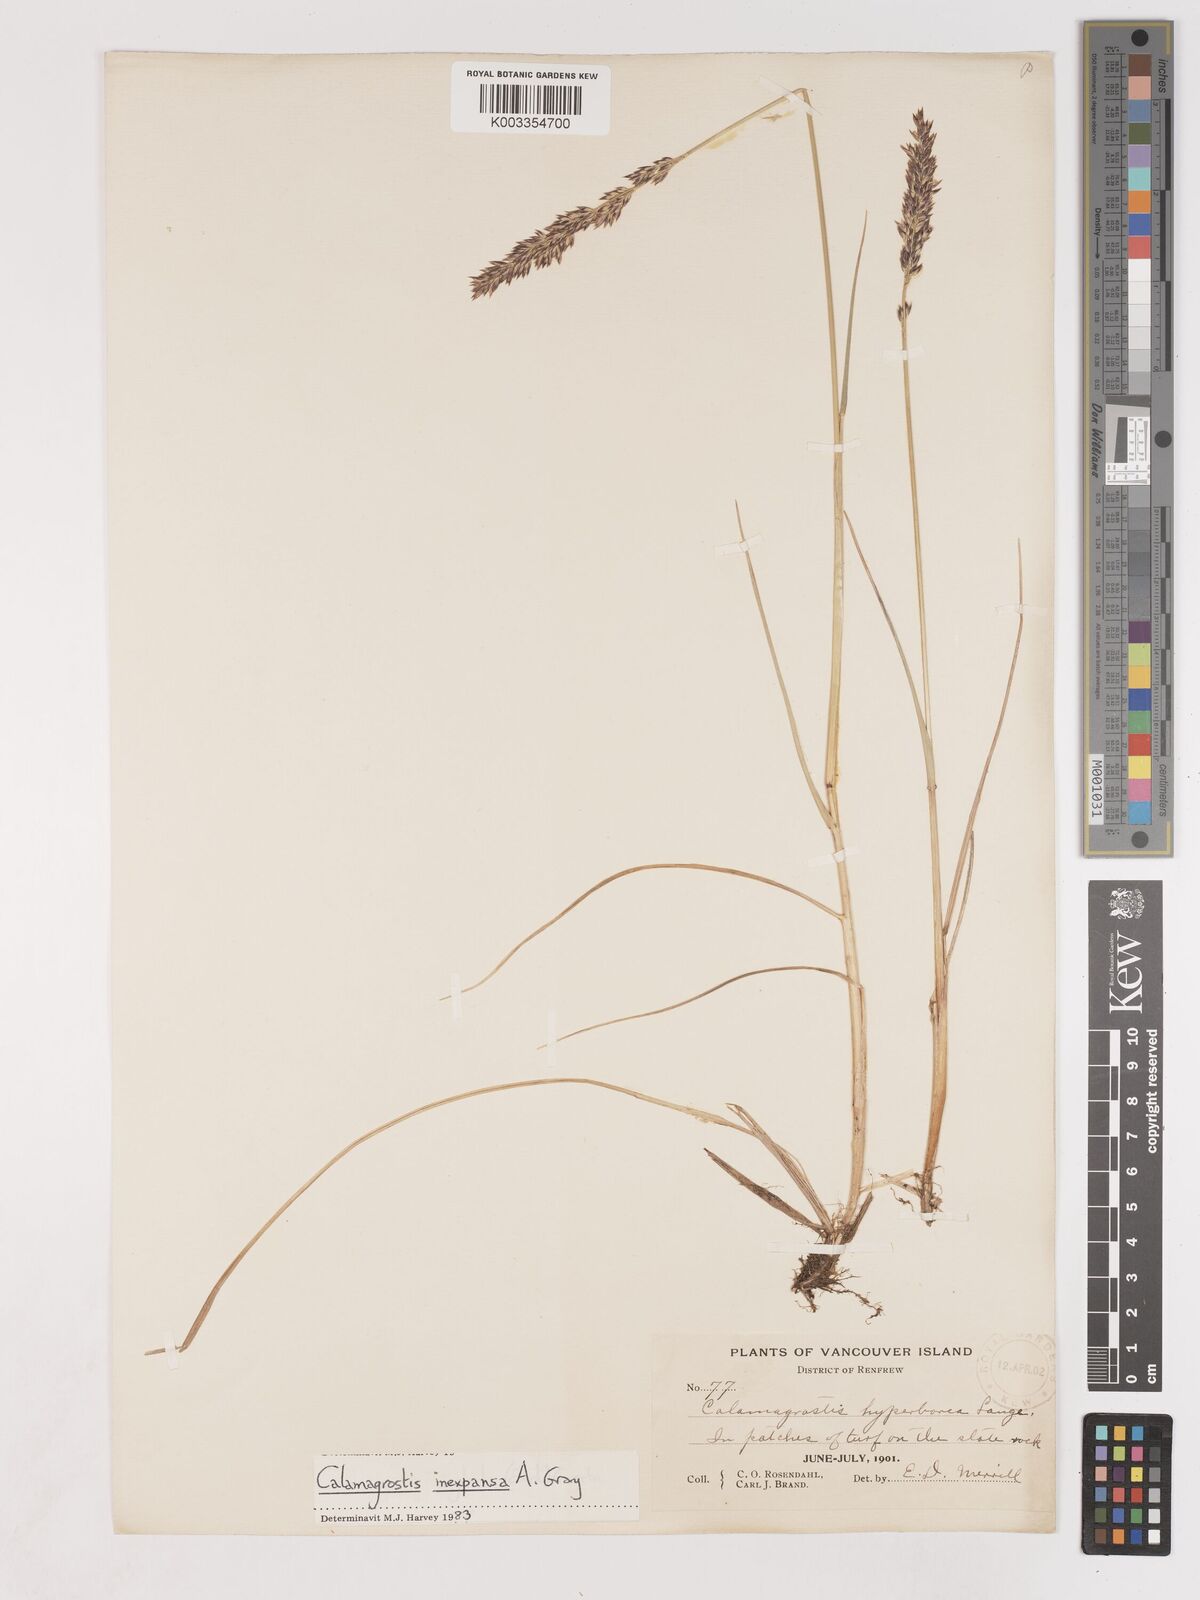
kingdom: Plantae
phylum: Tracheophyta
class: Liliopsida
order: Poales
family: Poaceae
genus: Cinnagrostis
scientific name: Cinnagrostis recta
